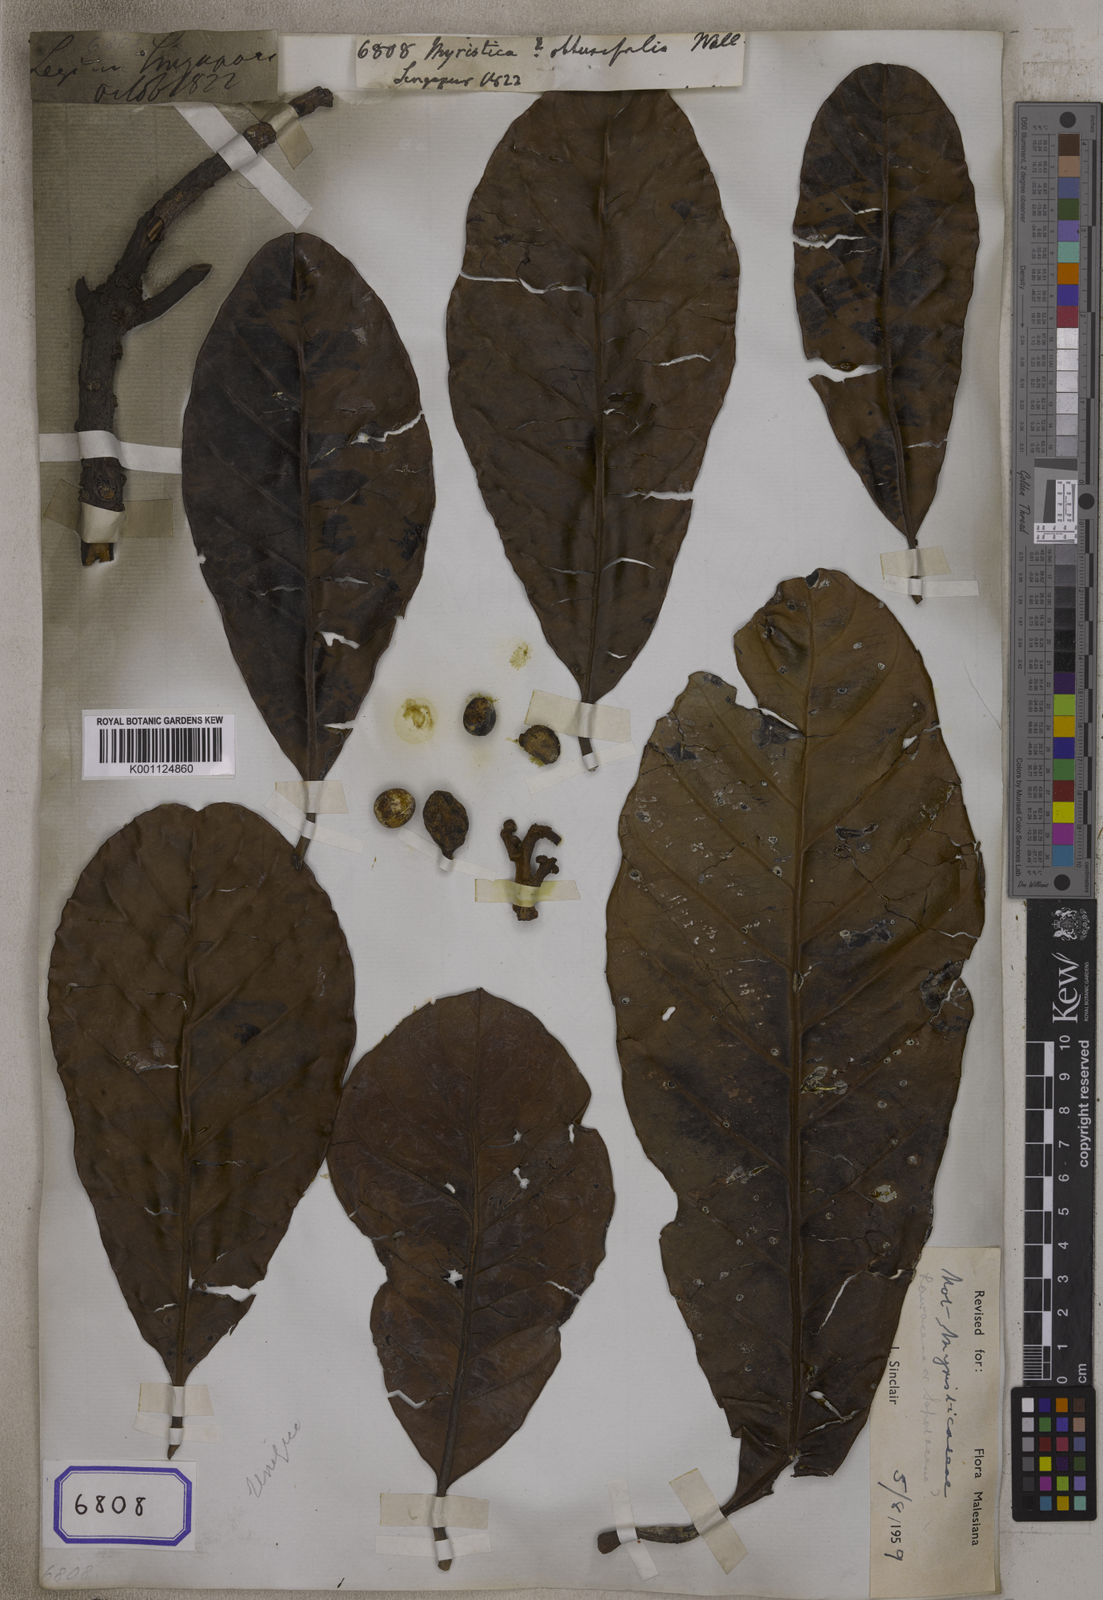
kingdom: Plantae
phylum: Tracheophyta
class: Magnoliopsida
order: Magnoliales
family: Myristicaceae
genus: Myristica
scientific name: Myristica obtusifolia
